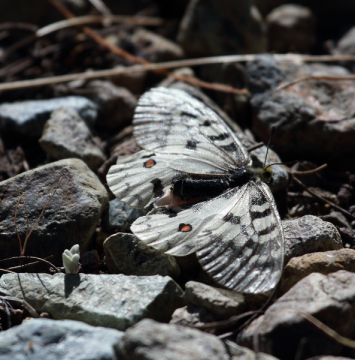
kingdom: Animalia
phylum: Arthropoda
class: Insecta
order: Lepidoptera
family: Papilionidae
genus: Parnassius
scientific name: Parnassius clodius
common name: Clodius Parnassian
